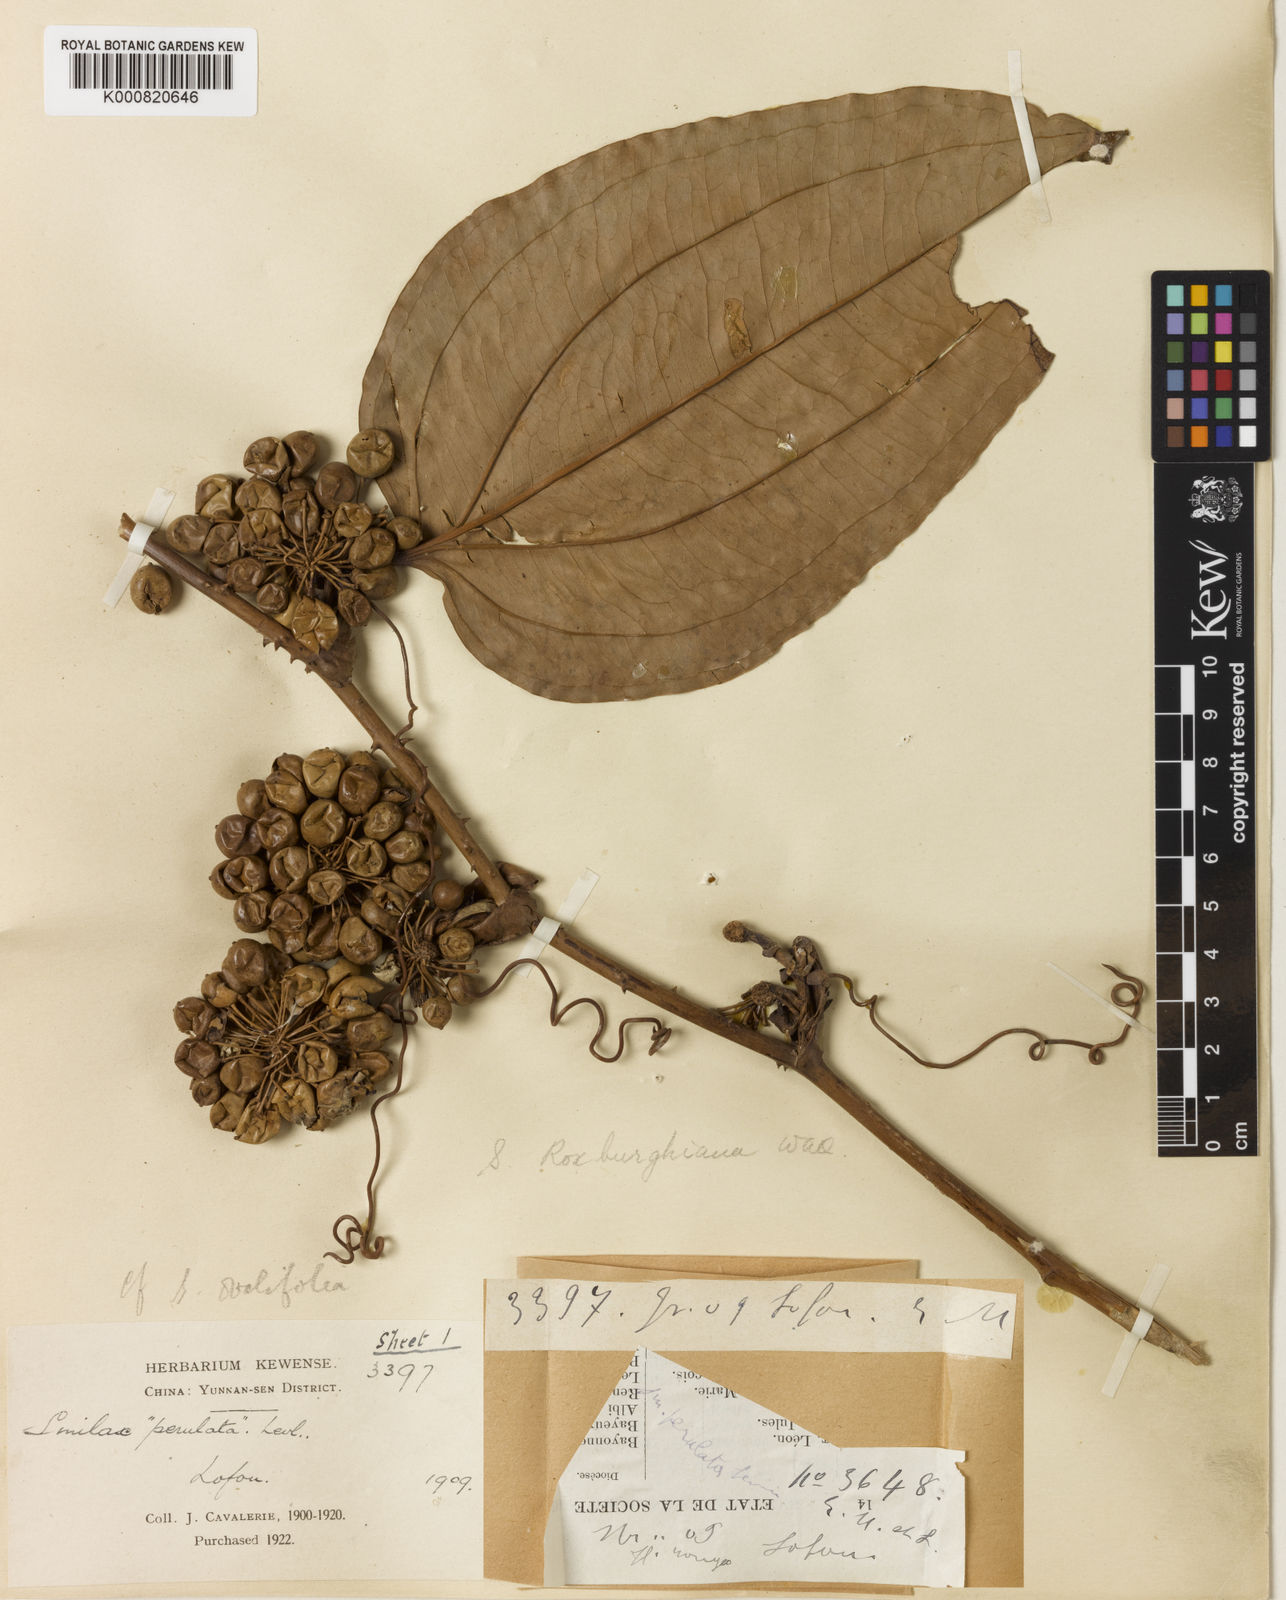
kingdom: Plantae
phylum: Tracheophyta
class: Liliopsida
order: Liliales
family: Smilacaceae
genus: Smilax
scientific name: Smilax ocreata
